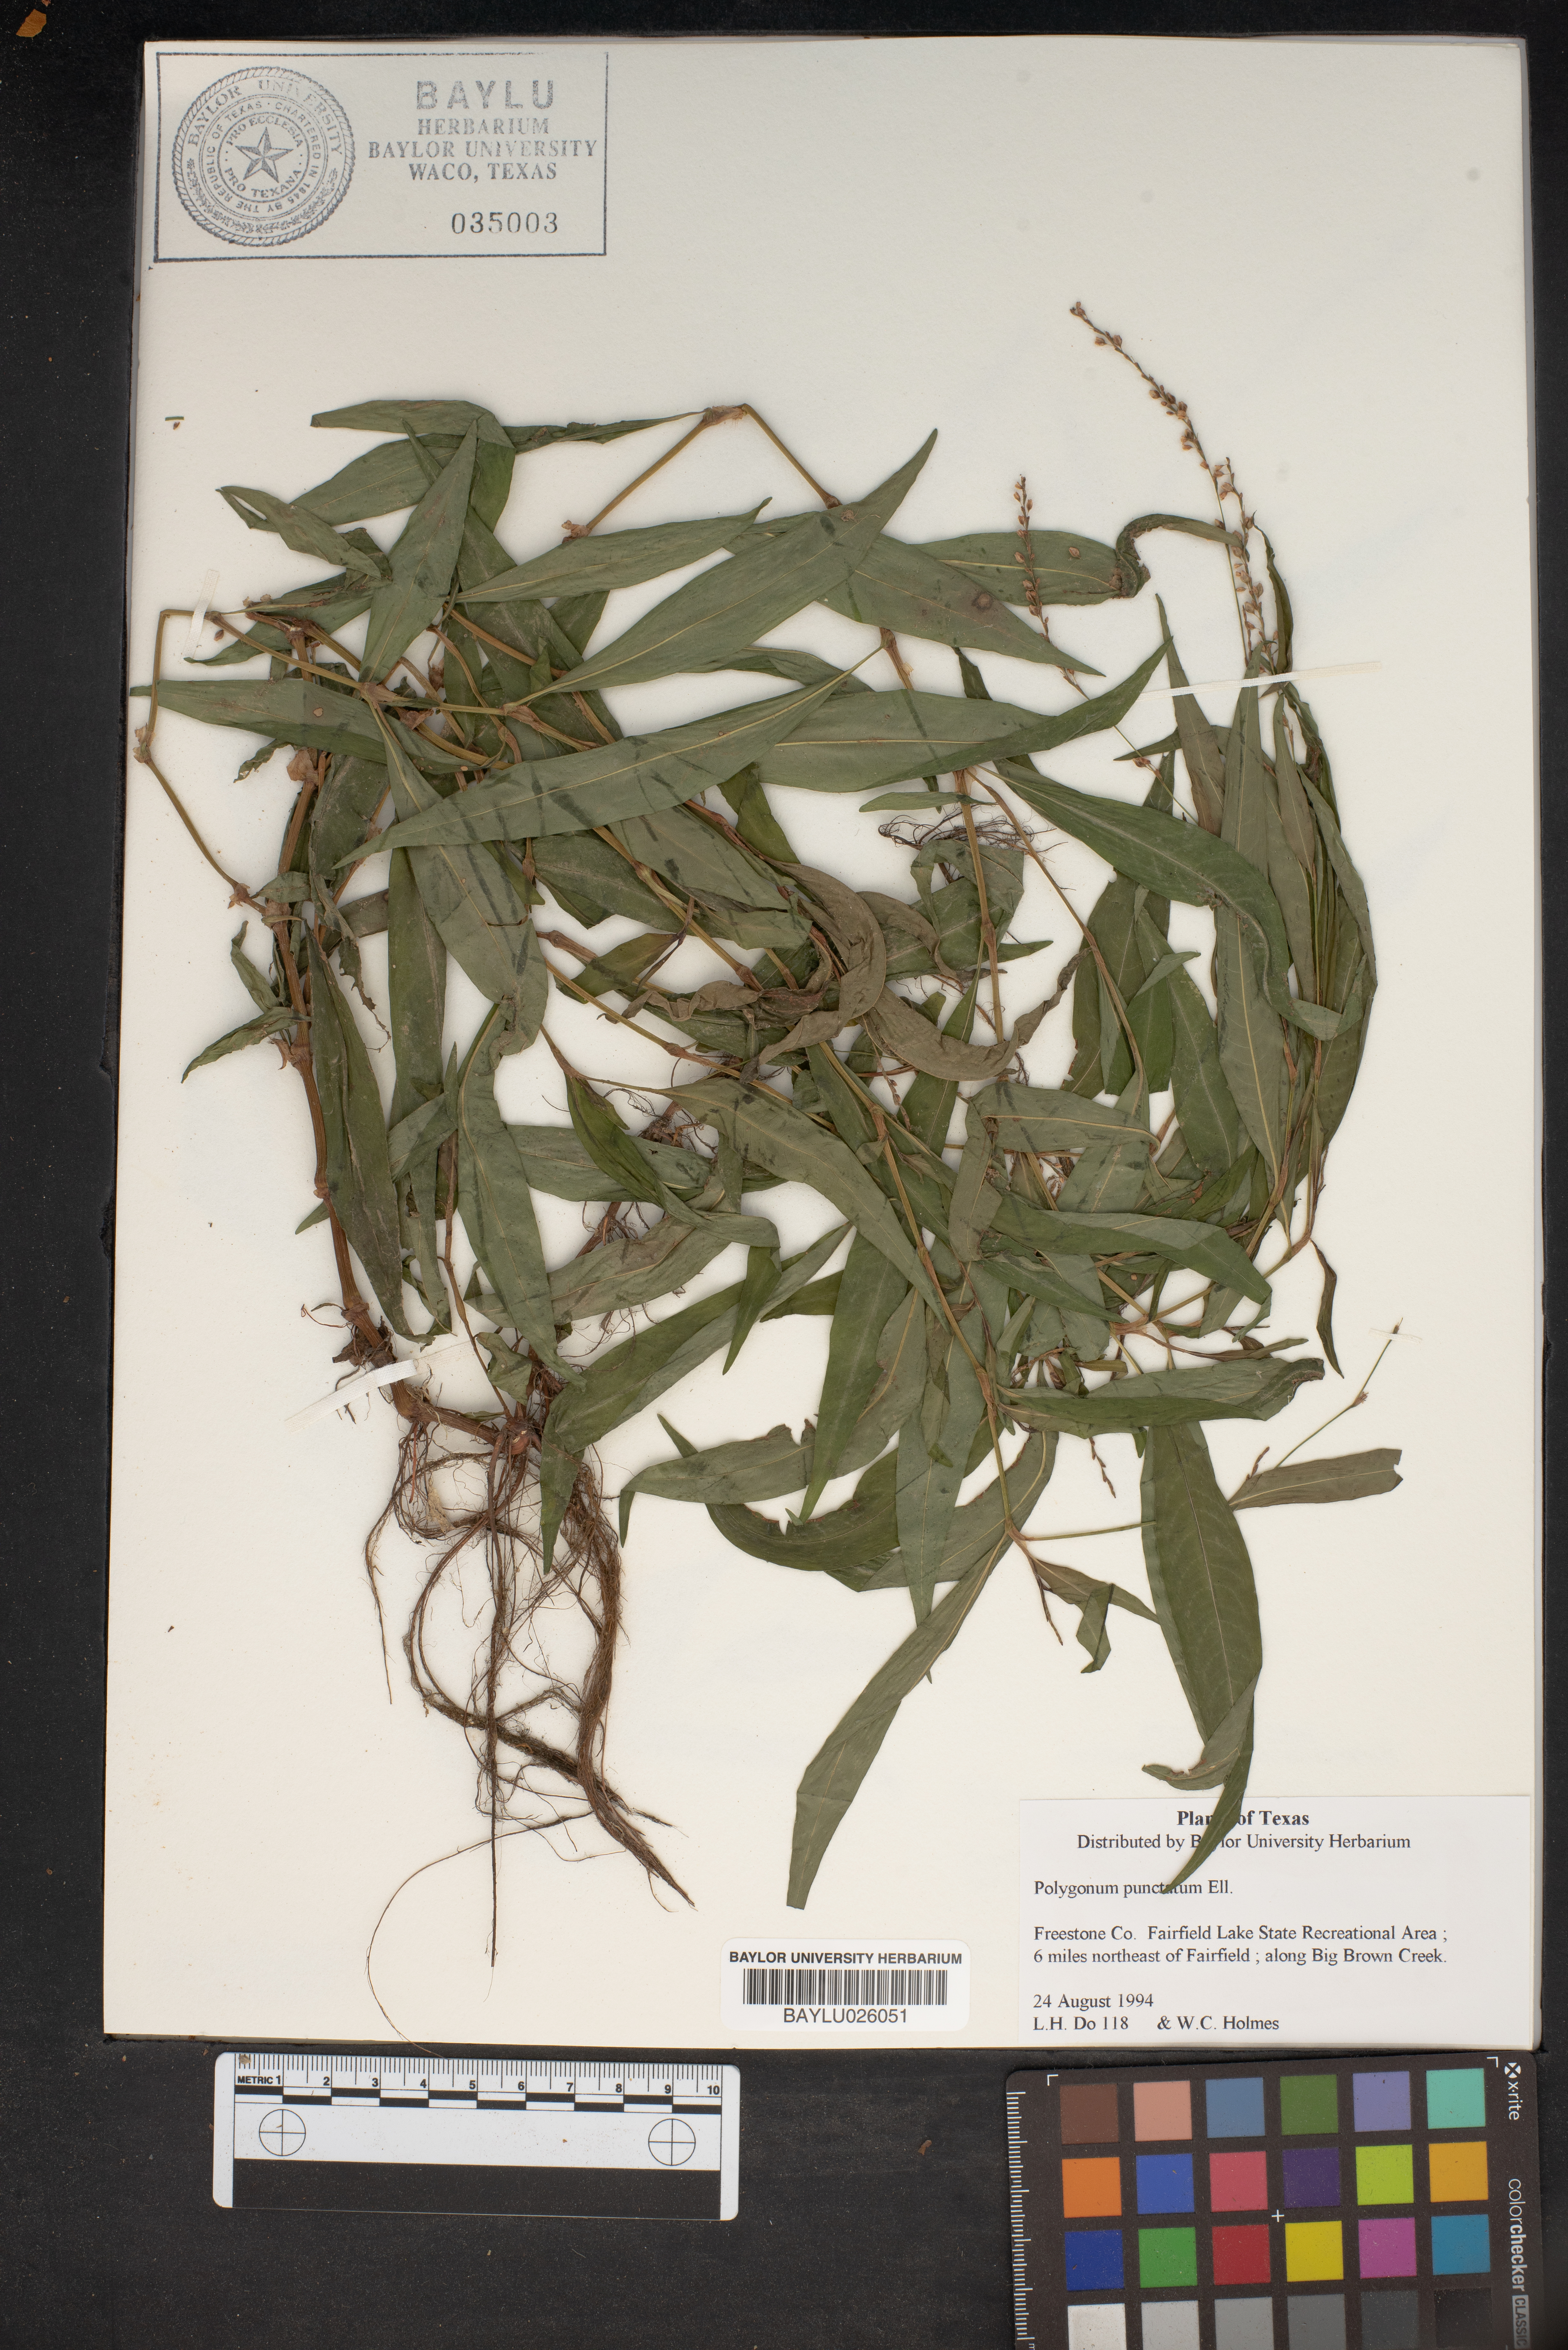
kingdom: Plantae
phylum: Tracheophyta
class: Magnoliopsida
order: Caryophyllales
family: Polygonaceae
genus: Persicaria
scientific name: Persicaria punctata
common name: Dotted smartweed
